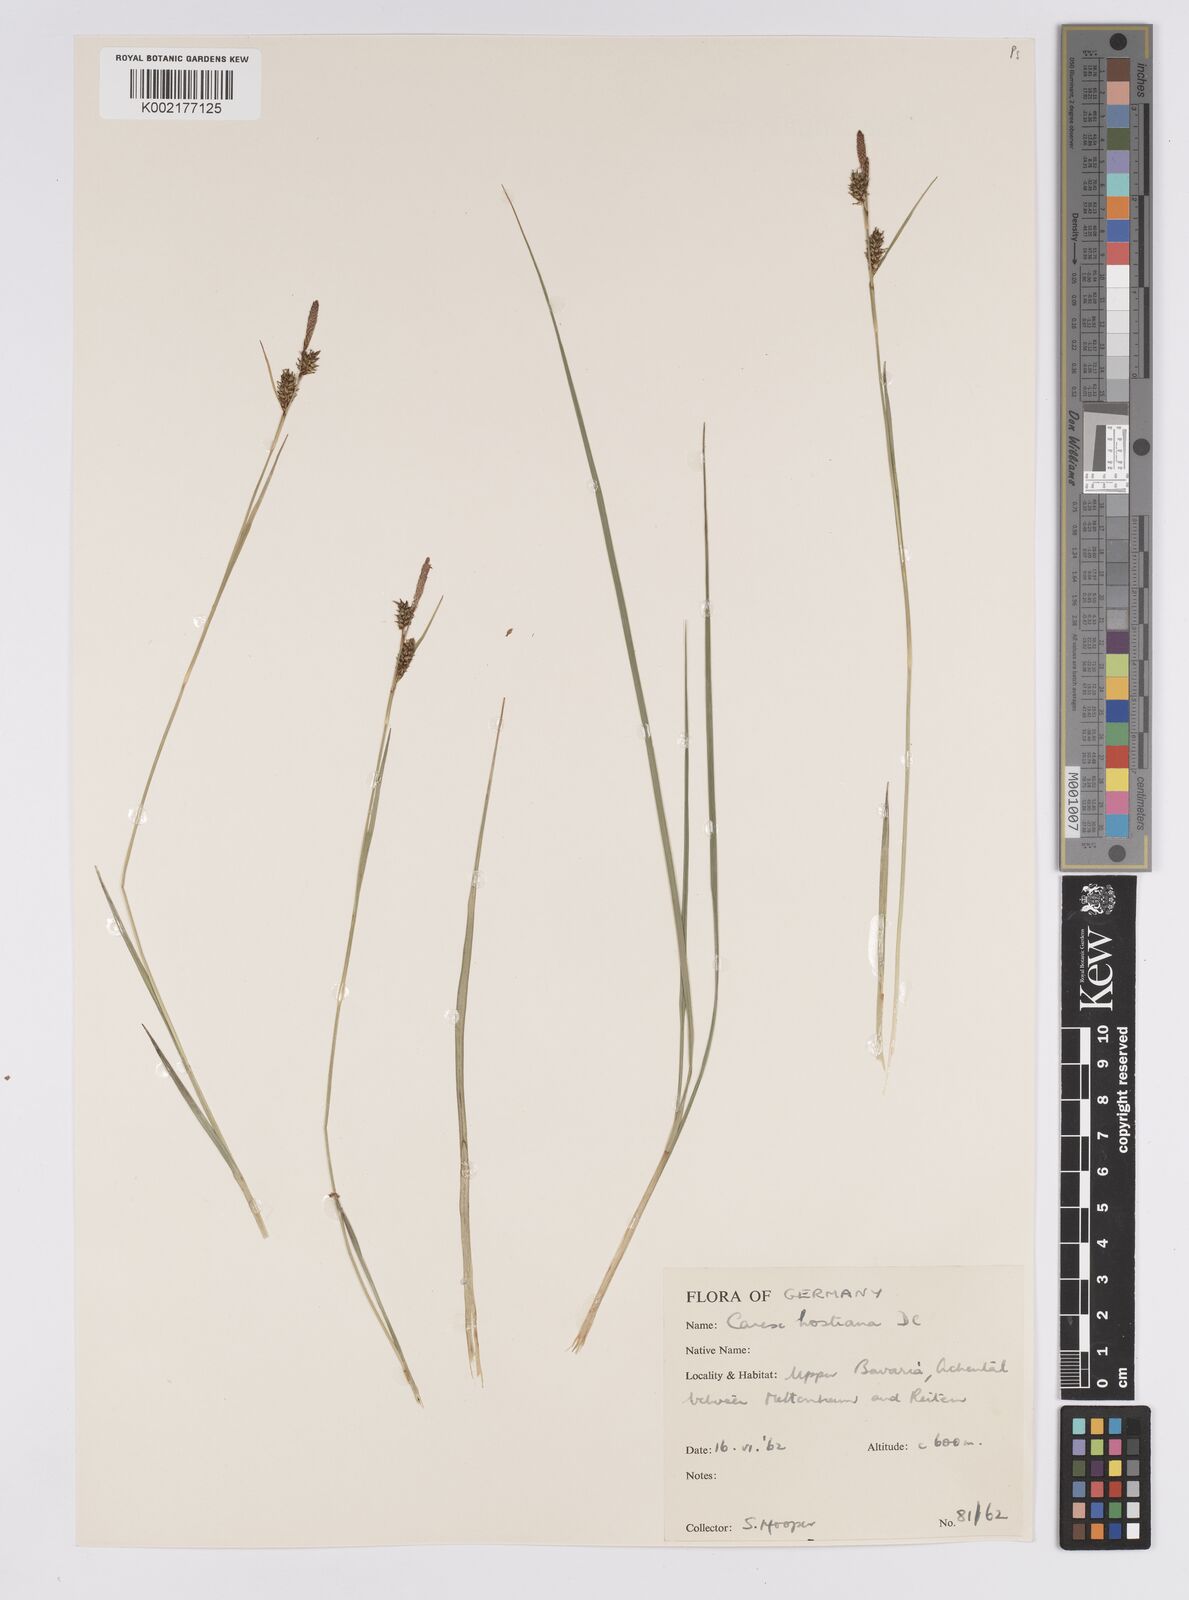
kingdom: Plantae
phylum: Tracheophyta
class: Liliopsida
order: Poales
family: Cyperaceae
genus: Carex
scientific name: Carex hostiana
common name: Tawny sedge
